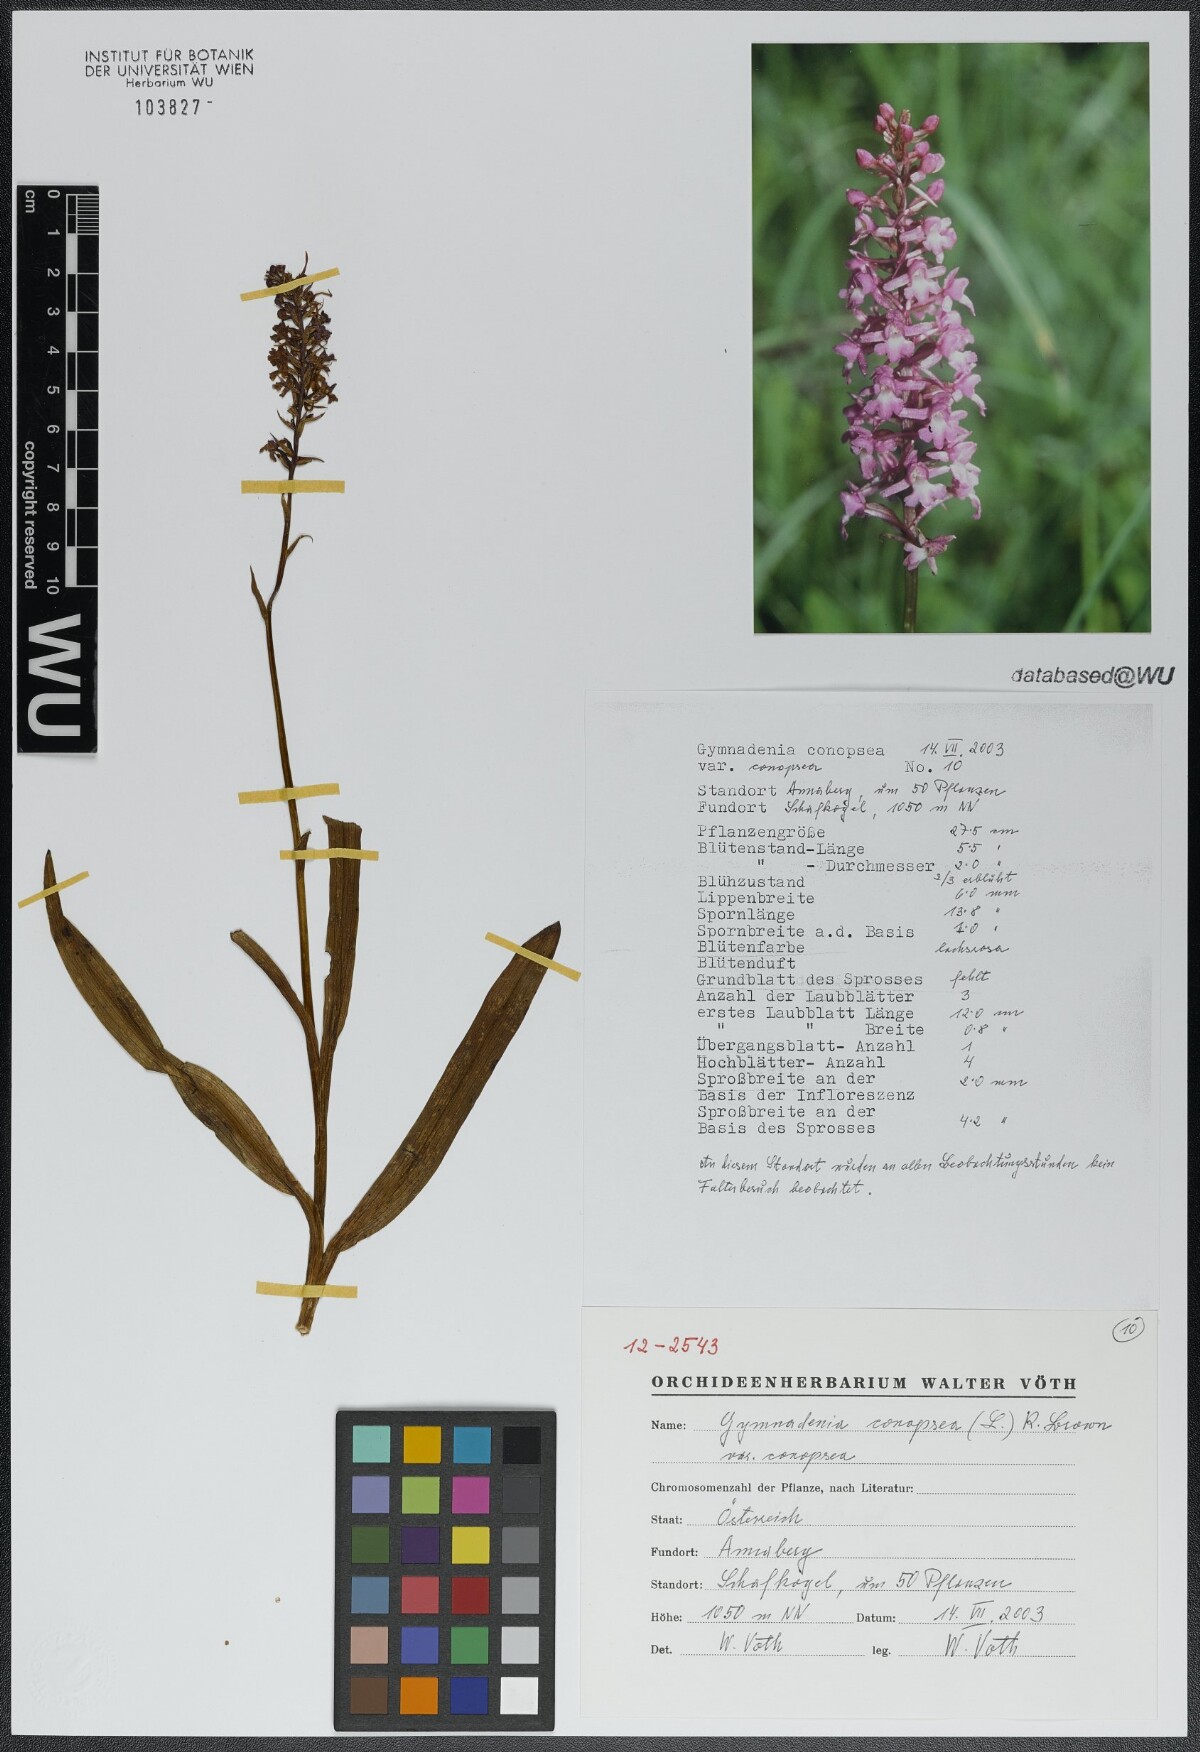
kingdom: Plantae
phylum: Tracheophyta
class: Liliopsida
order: Asparagales
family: Orchidaceae
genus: Gymnadenia
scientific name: Gymnadenia conopsea
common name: Fragrant orchid
